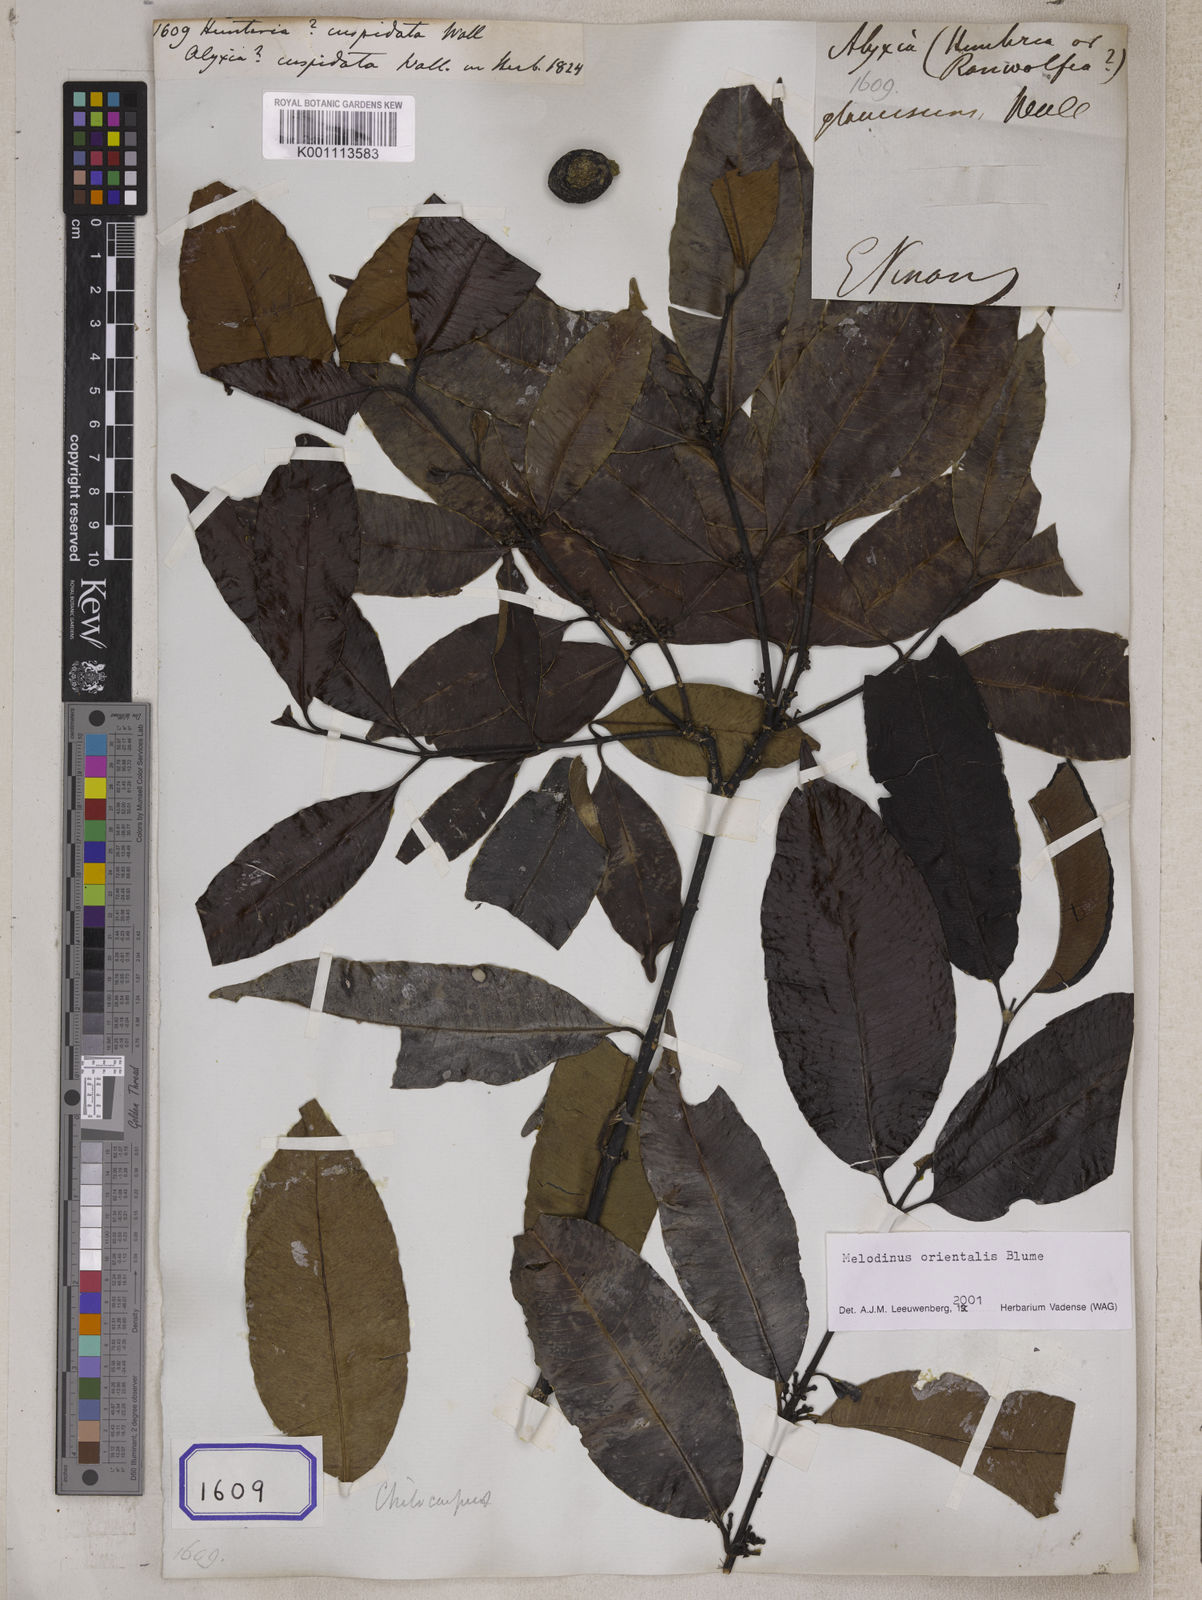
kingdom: Plantae
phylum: Tracheophyta
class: Magnoliopsida
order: Gentianales
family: Apocynaceae
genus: Hunteria
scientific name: Hunteria
